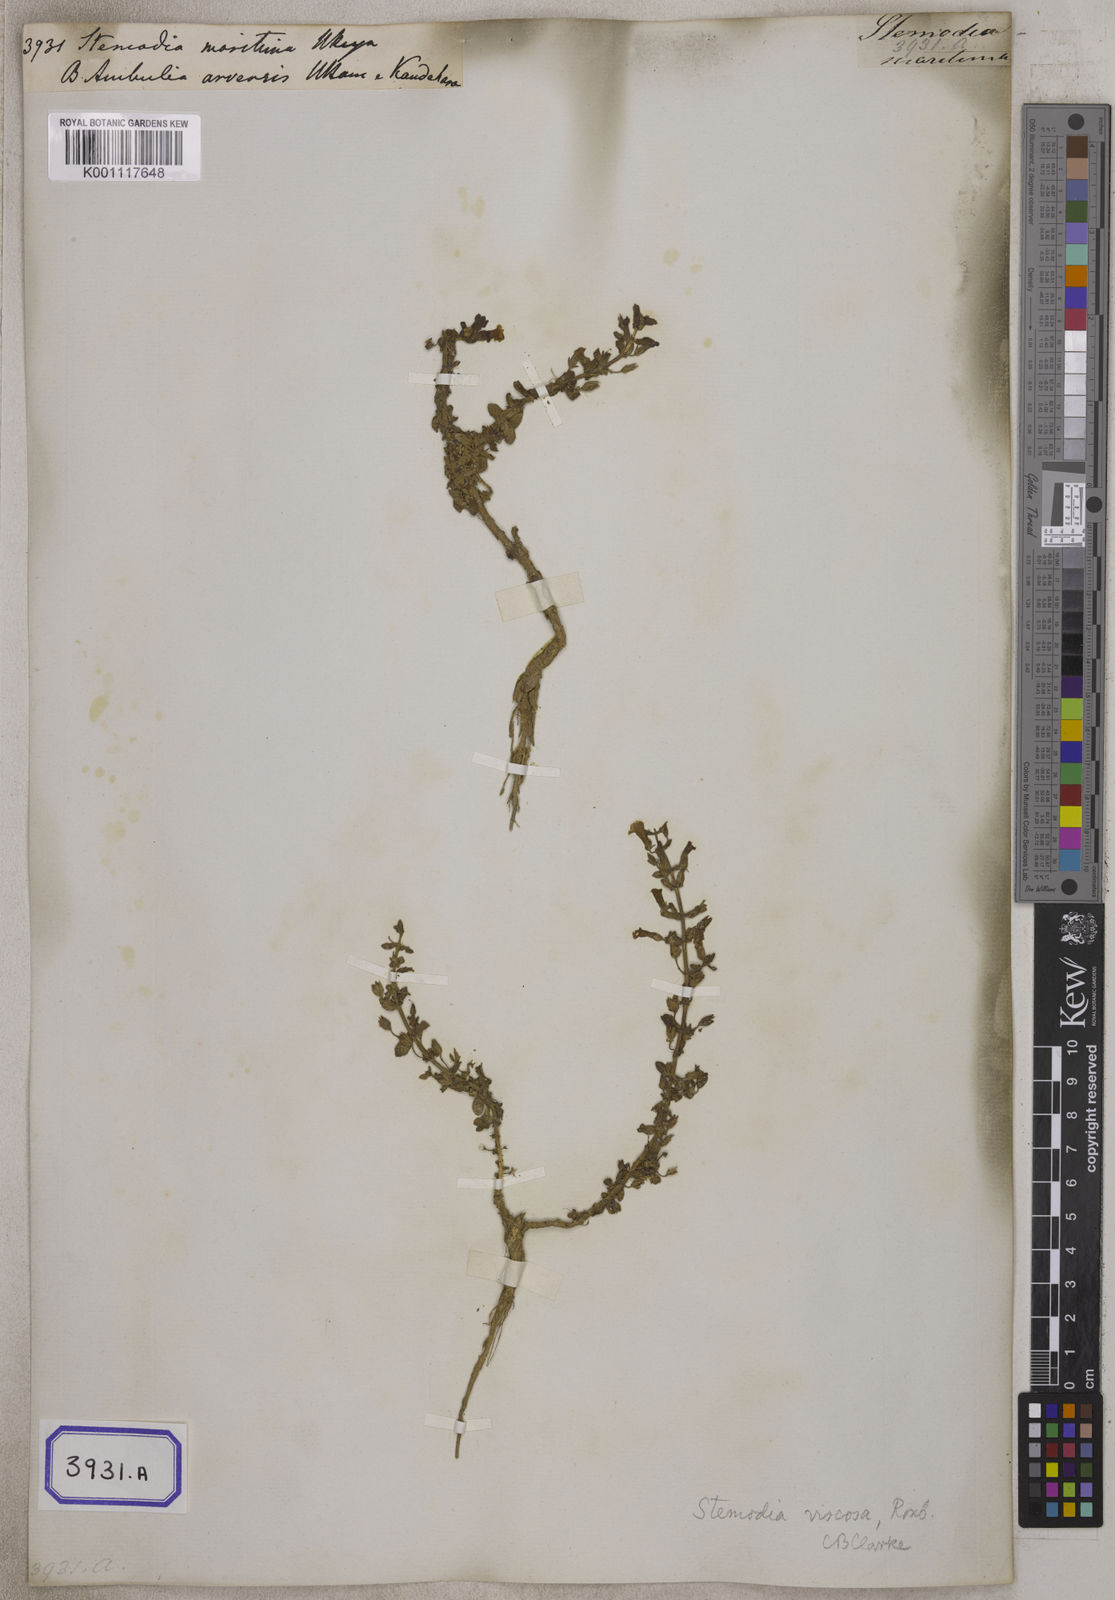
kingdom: Plantae
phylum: Tracheophyta
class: Magnoliopsida
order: Lamiales
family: Plantaginaceae
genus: Stemodia
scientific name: Stemodia
